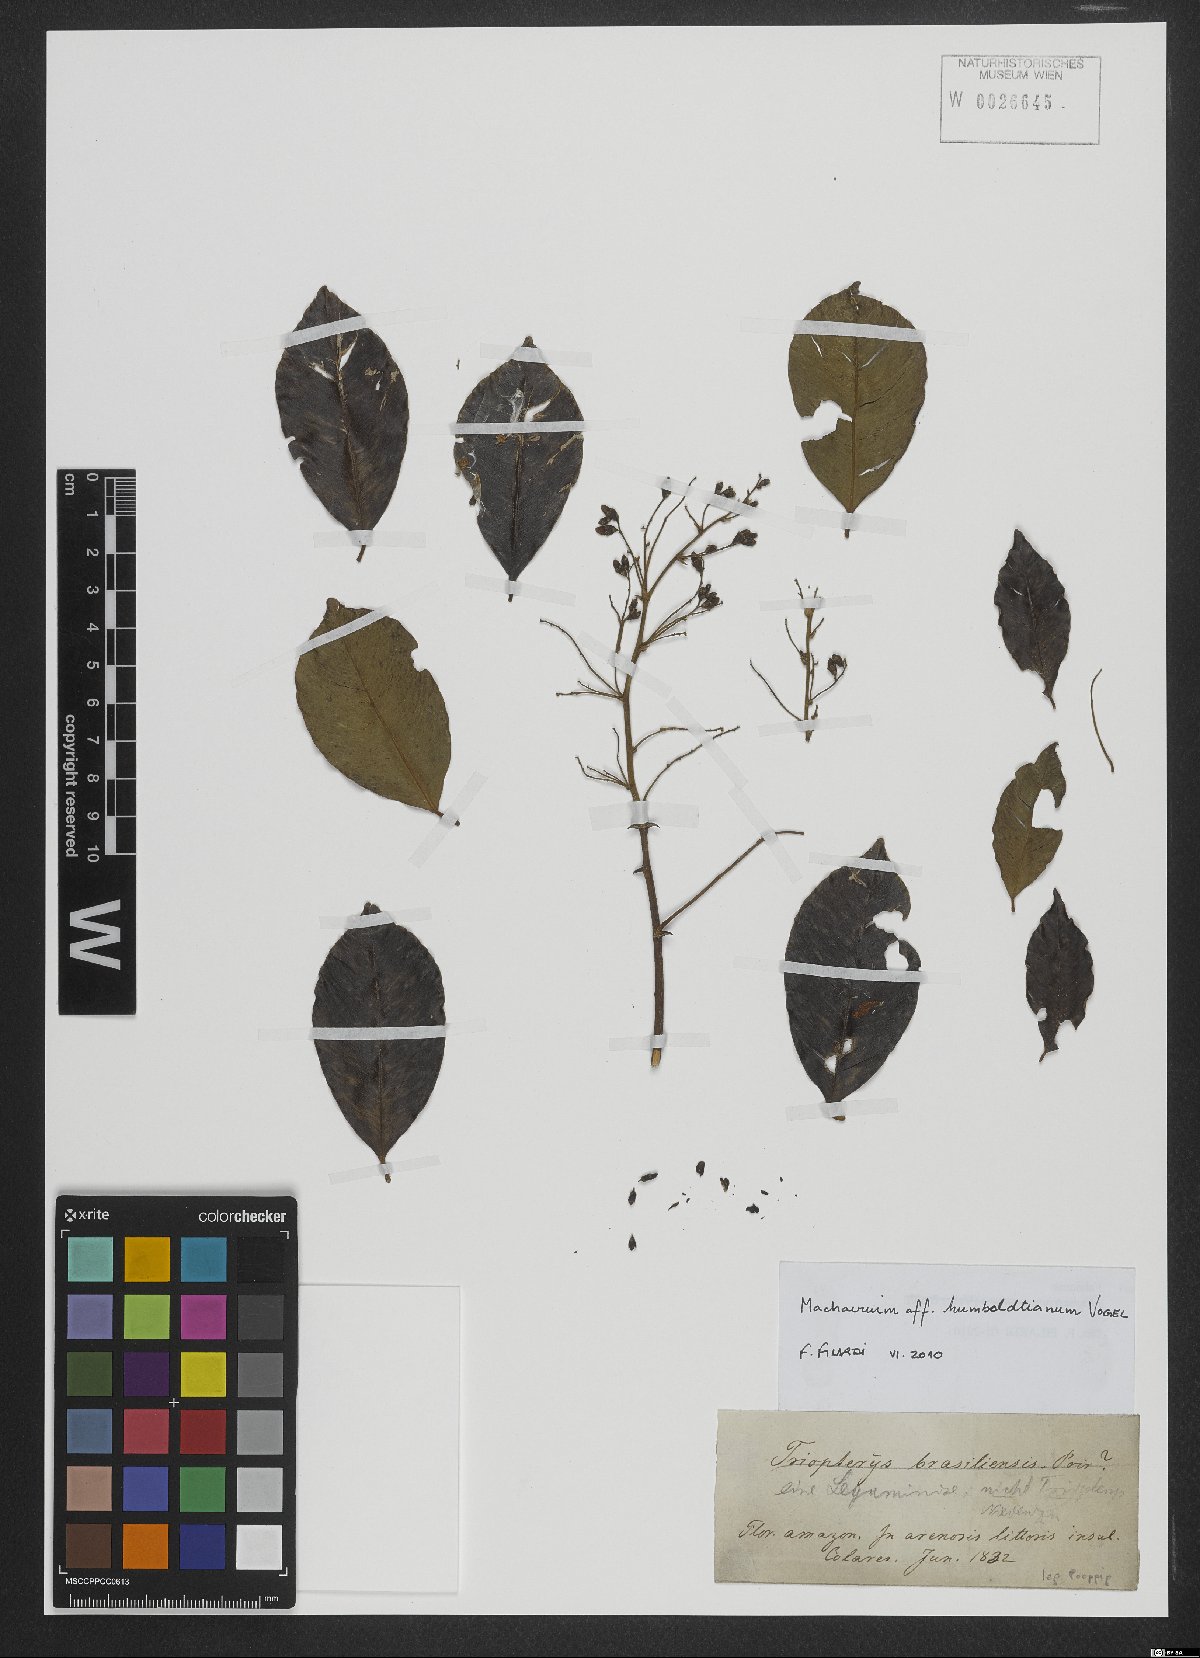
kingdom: Plantae
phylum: Tracheophyta
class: Magnoliopsida
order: Fabales
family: Fabaceae
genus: Machaerium
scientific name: Machaerium humboldtianum
